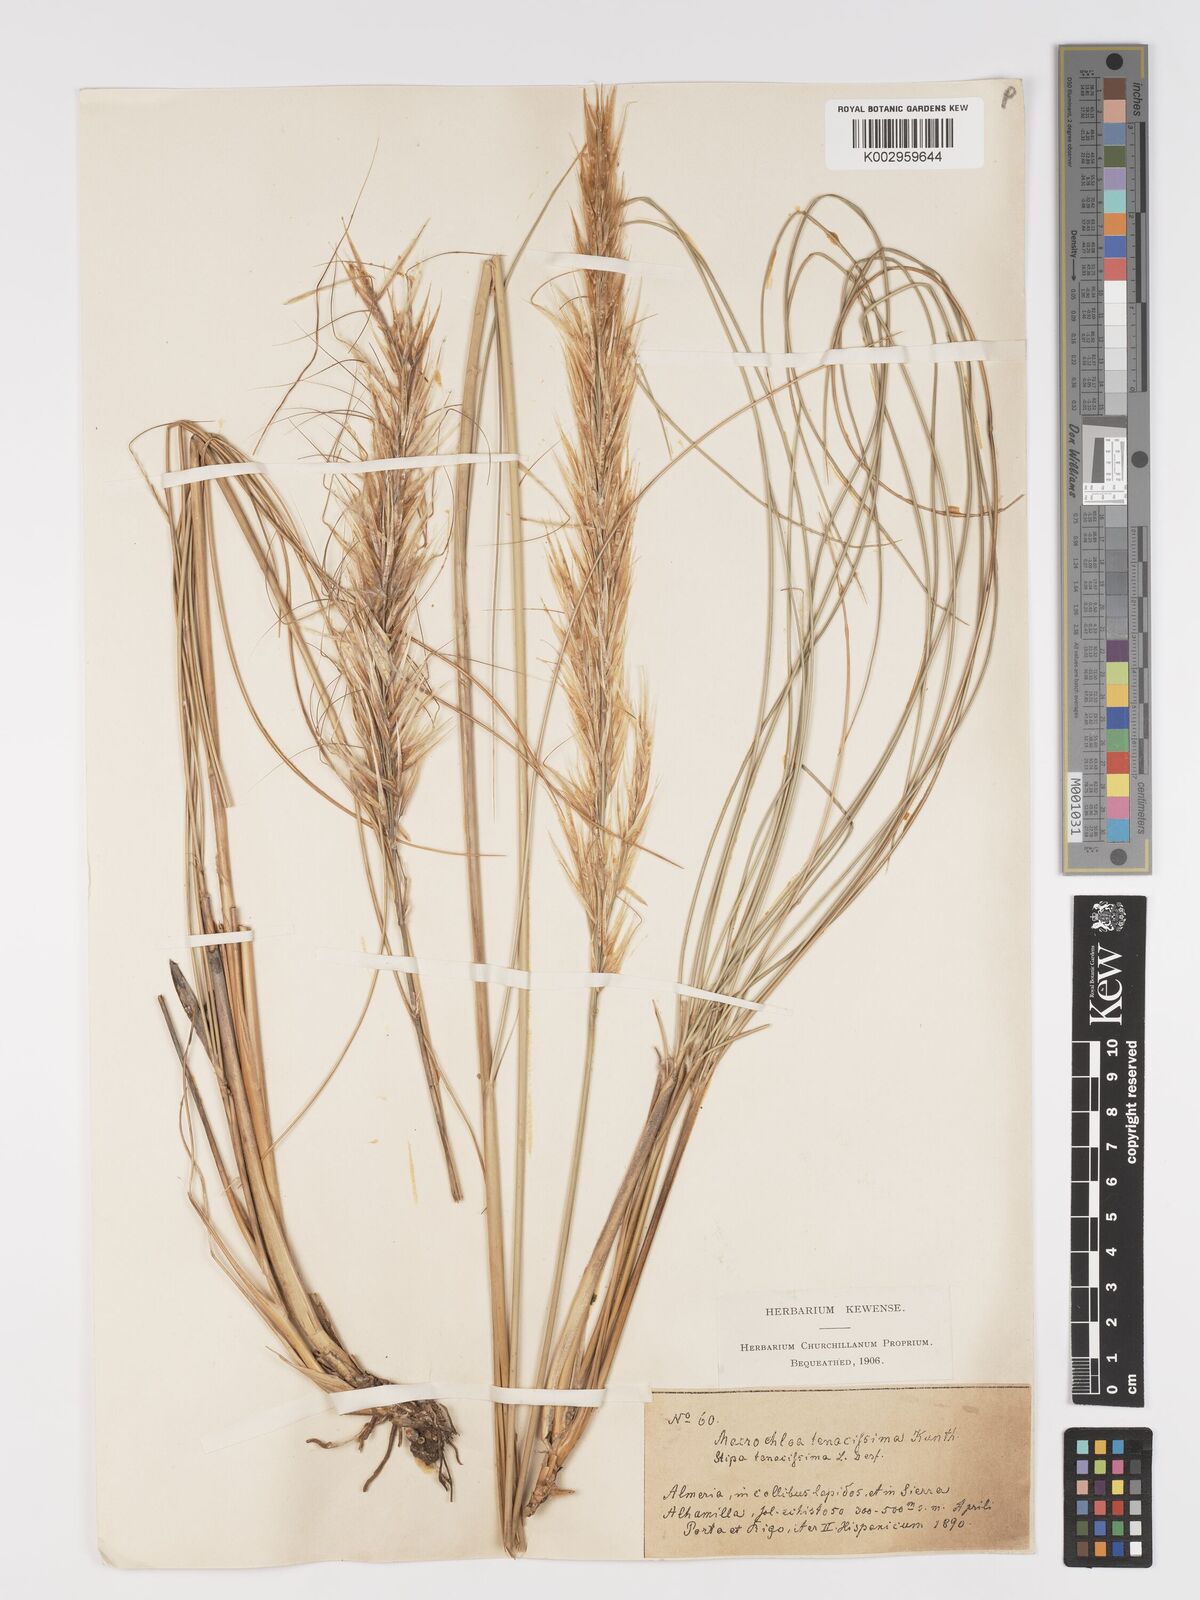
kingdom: Plantae
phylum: Tracheophyta
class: Liliopsida
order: Poales
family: Poaceae
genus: Macrochloa
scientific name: Macrochloa tenacissima
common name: Alfa grass
